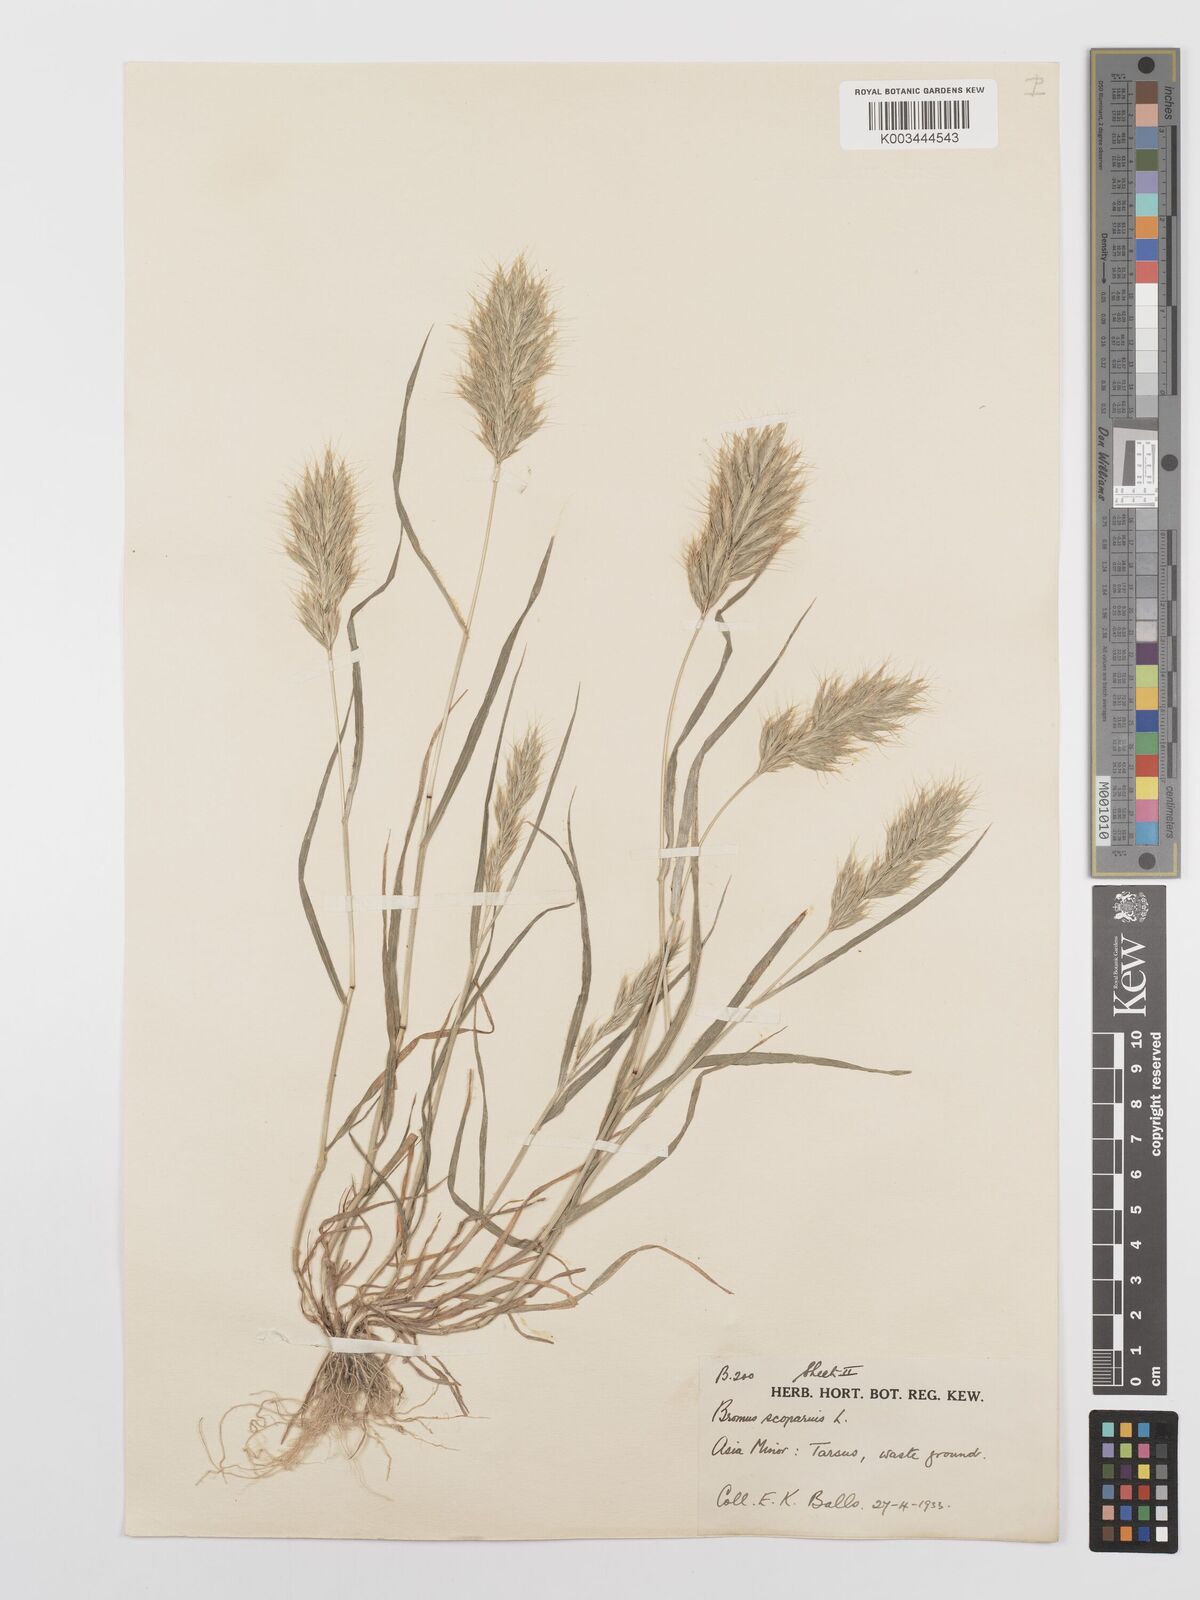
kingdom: Plantae
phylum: Tracheophyta
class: Liliopsida
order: Poales
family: Poaceae
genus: Bromus
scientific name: Bromus scoparius
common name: Broom brome
